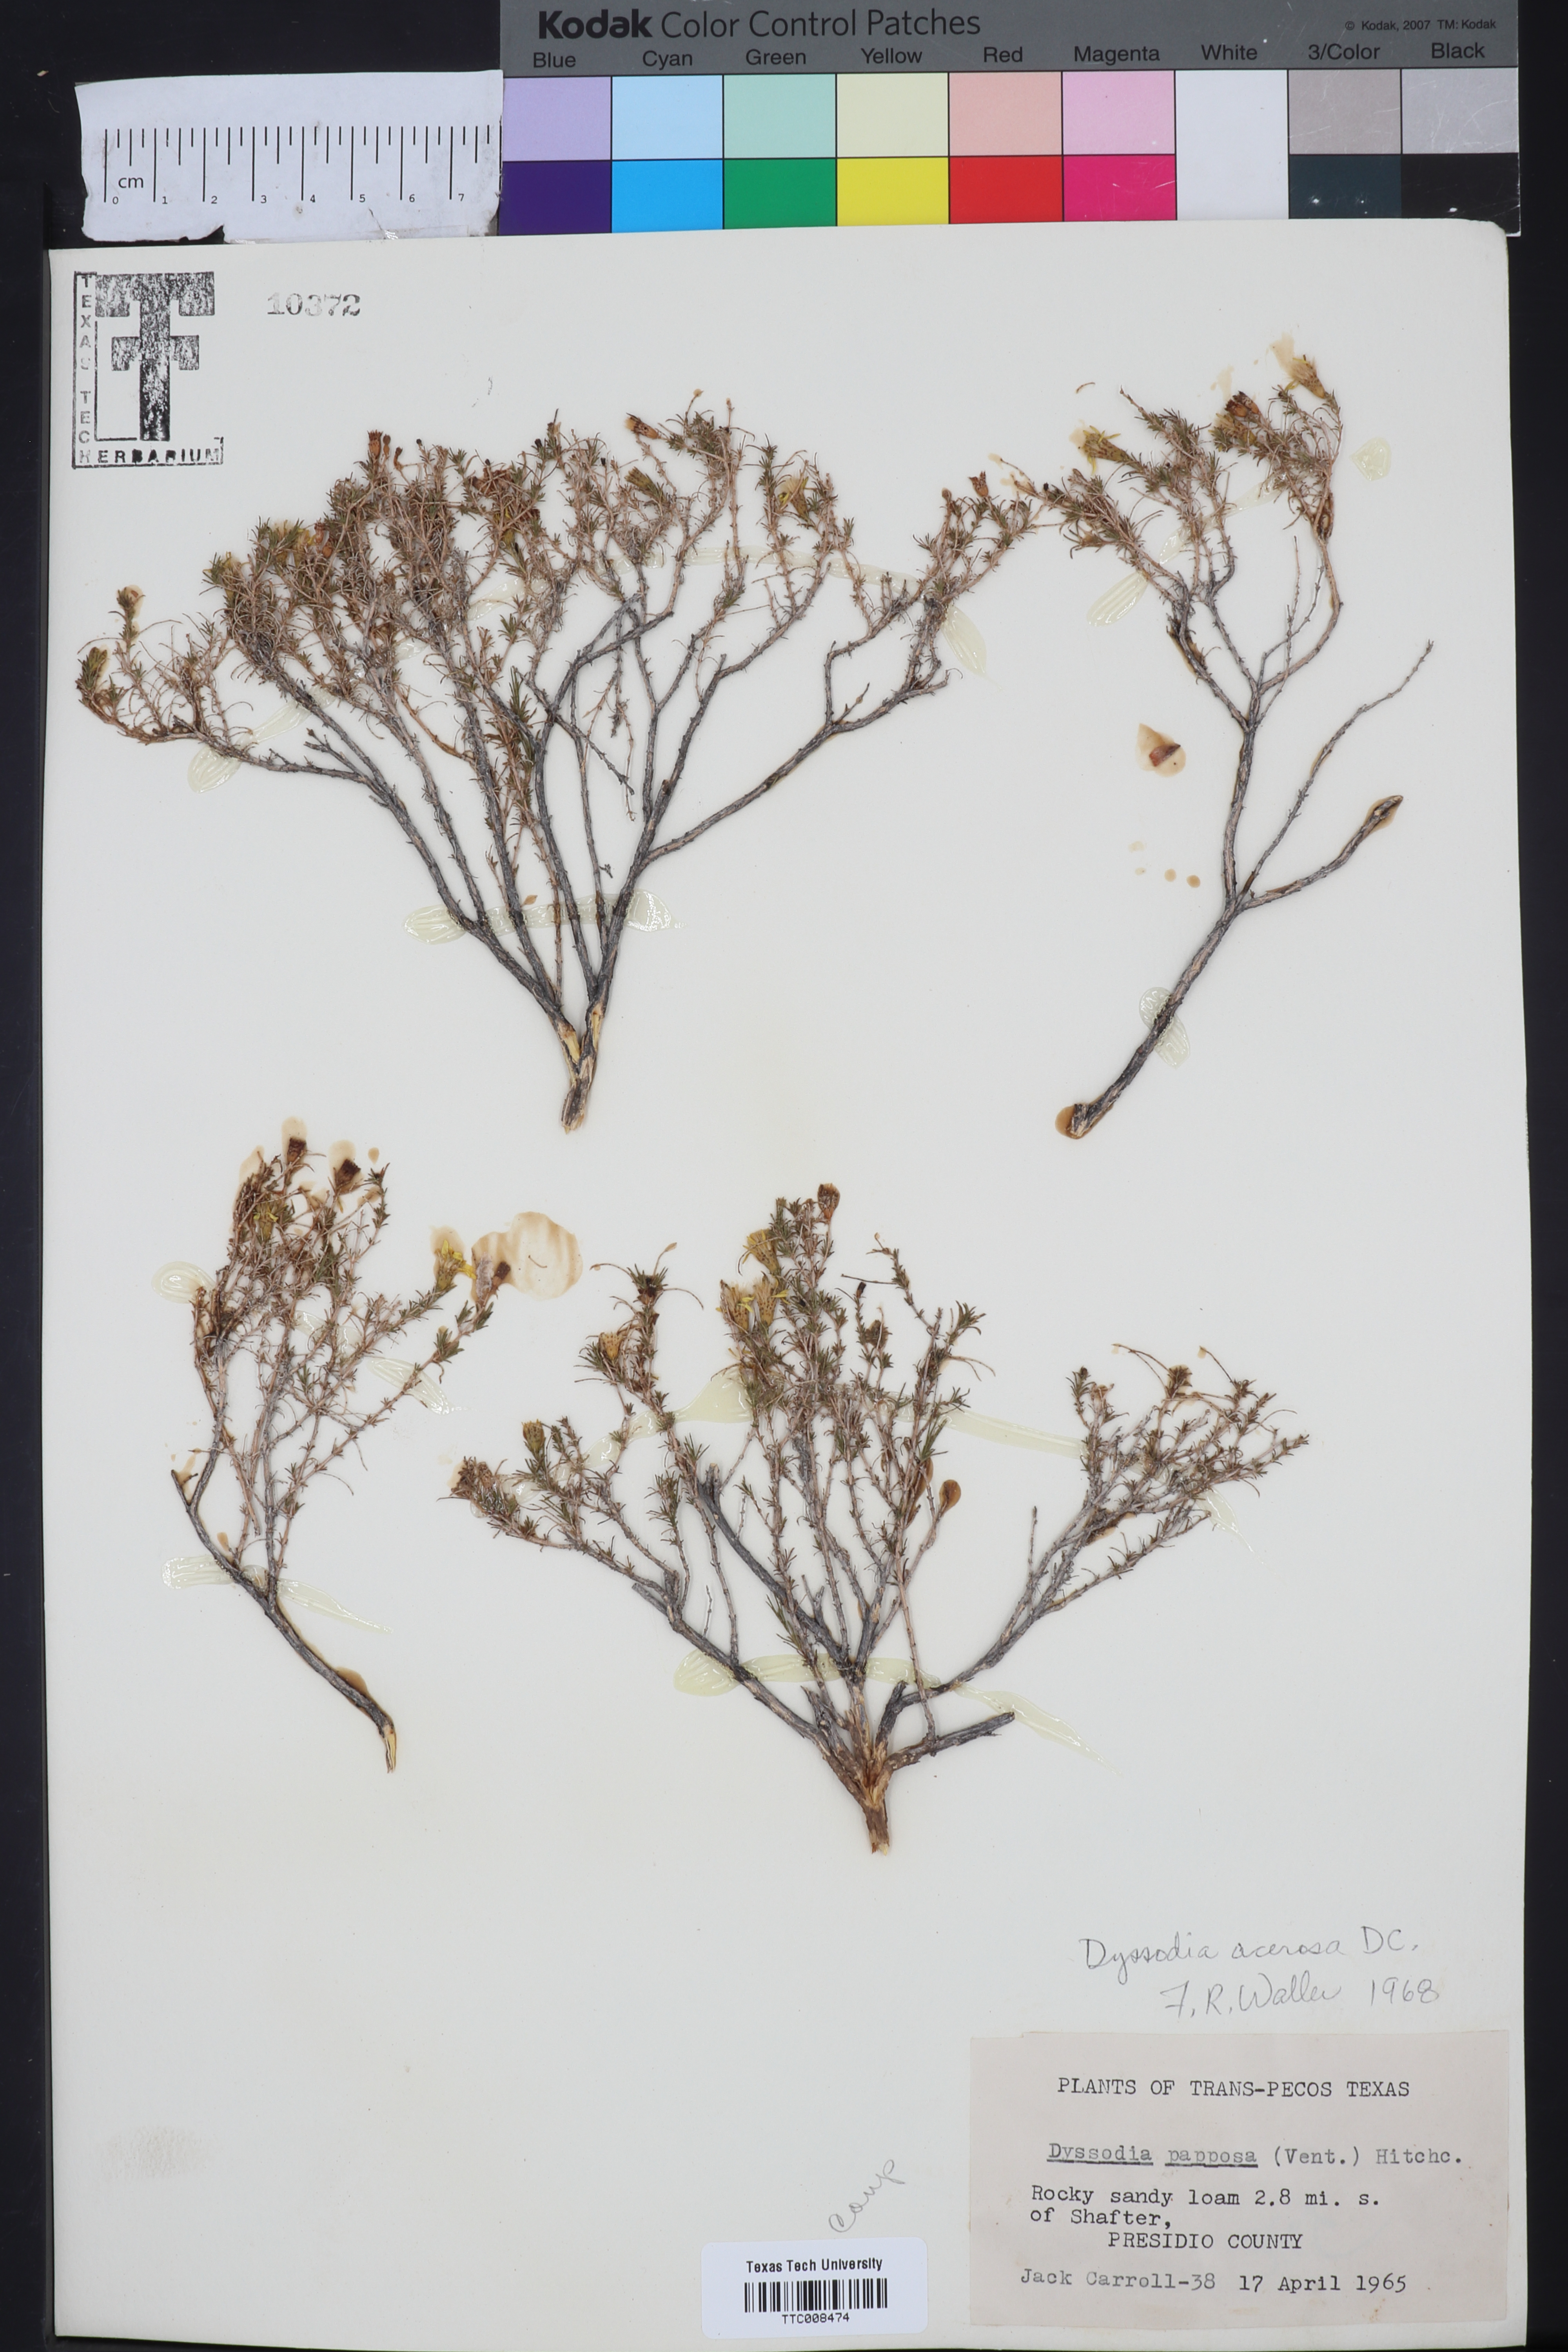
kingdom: Plantae
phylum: Tracheophyta
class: Magnoliopsida
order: Asterales
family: Asteraceae
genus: Thymophylla
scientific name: Thymophylla acerosa
